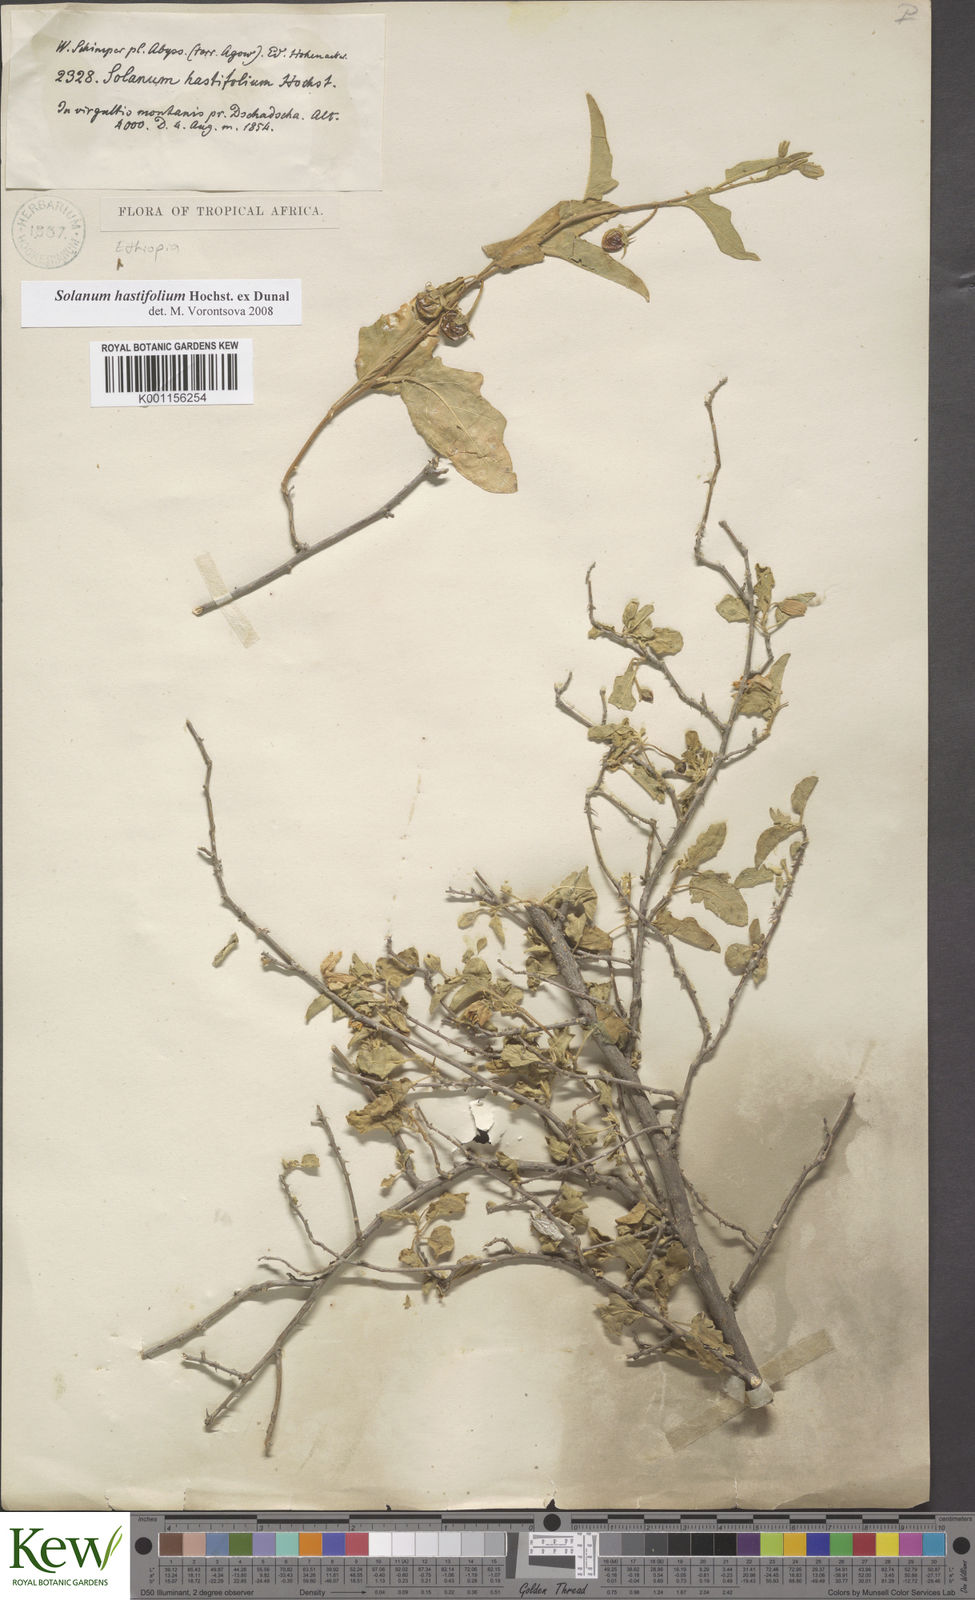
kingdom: Plantae
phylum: Tracheophyta
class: Magnoliopsida
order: Solanales
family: Solanaceae
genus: Solanum
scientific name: Solanum hastifolium
